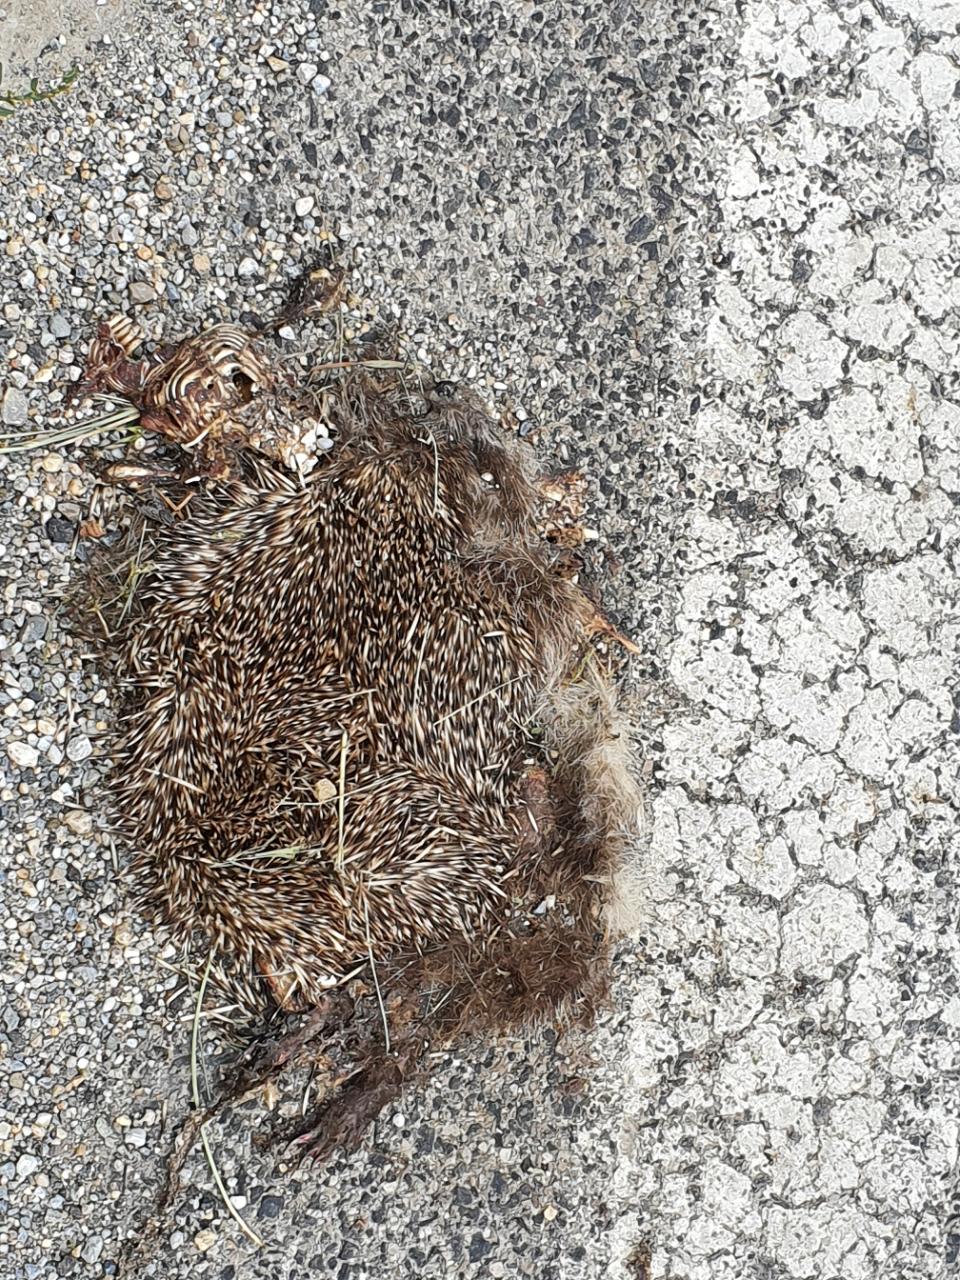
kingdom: Animalia
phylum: Chordata
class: Mammalia
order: Erinaceomorpha
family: Erinaceidae
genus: Erinaceus
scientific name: Erinaceus
